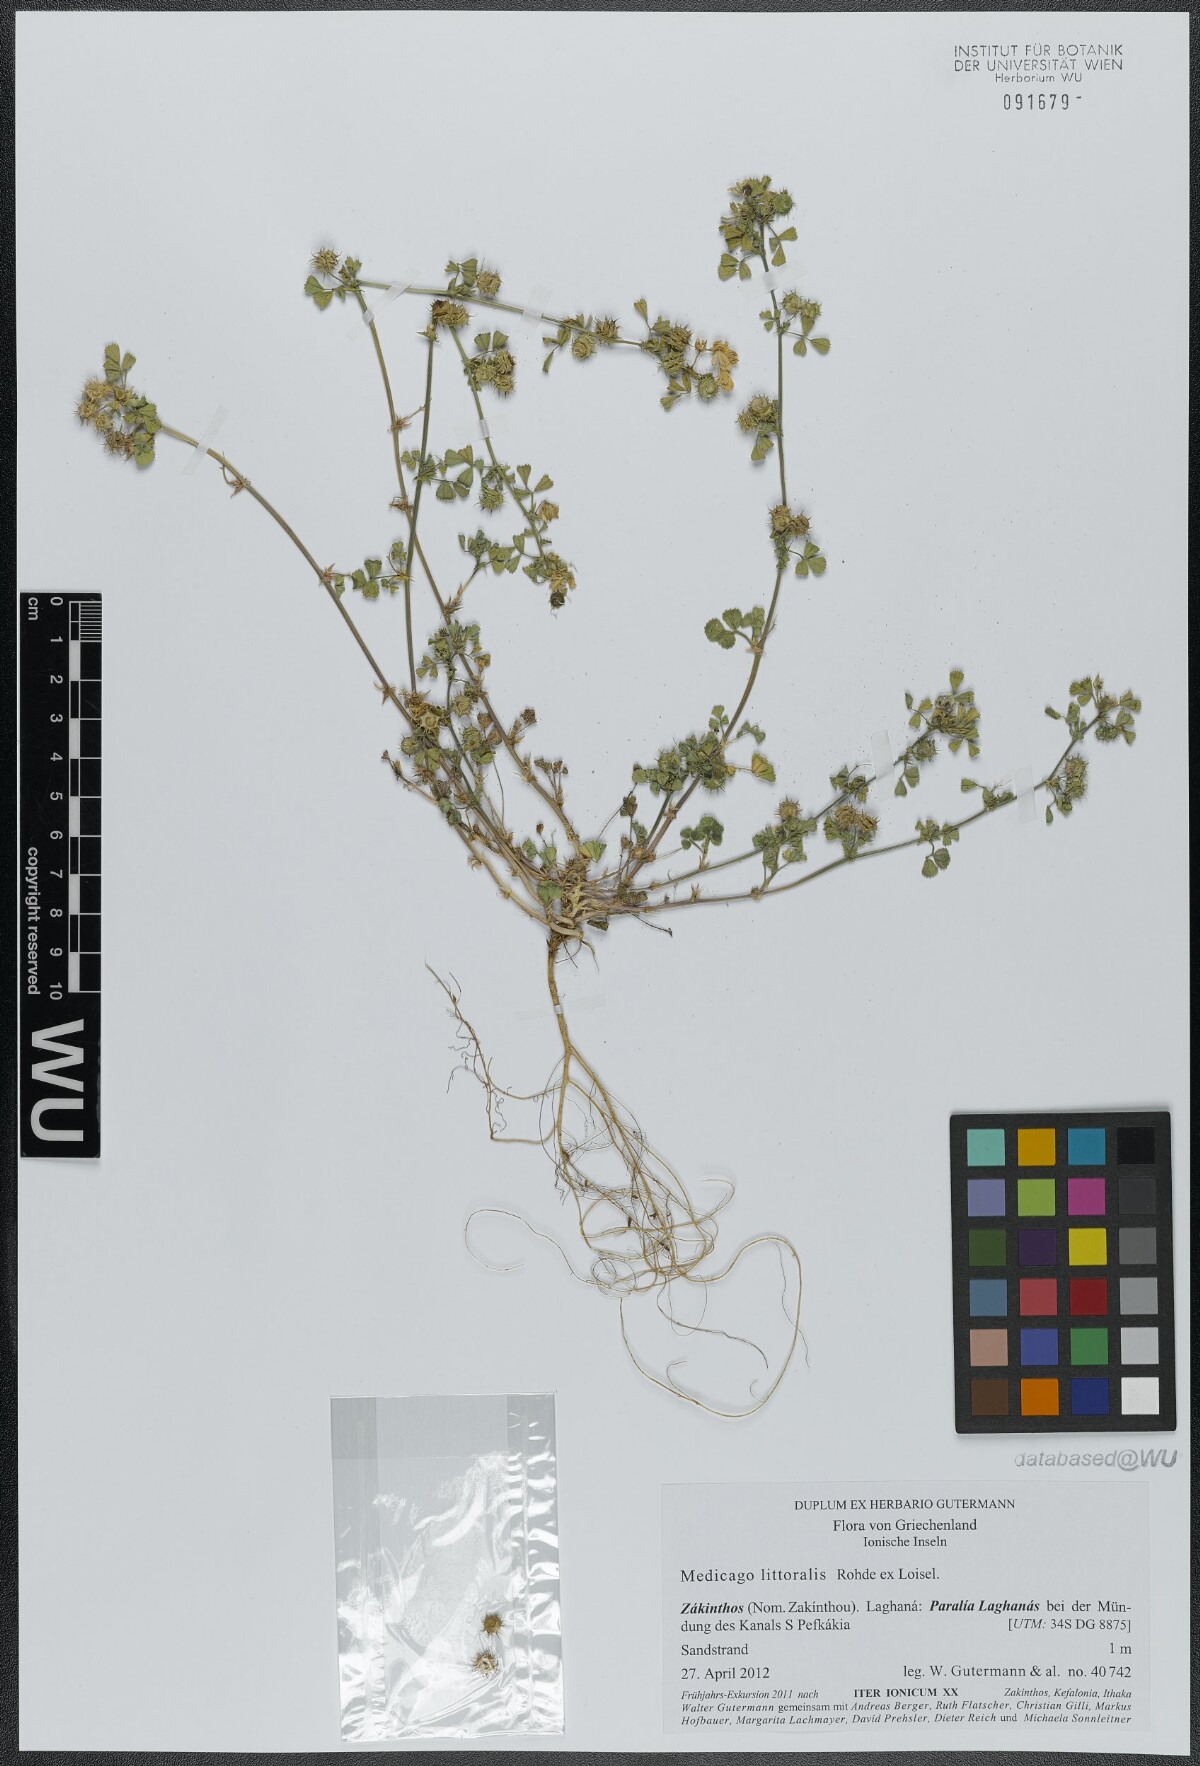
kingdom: Plantae
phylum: Tracheophyta
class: Magnoliopsida
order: Fabales
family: Fabaceae
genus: Medicago
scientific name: Medicago littoralis
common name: Shore medick
